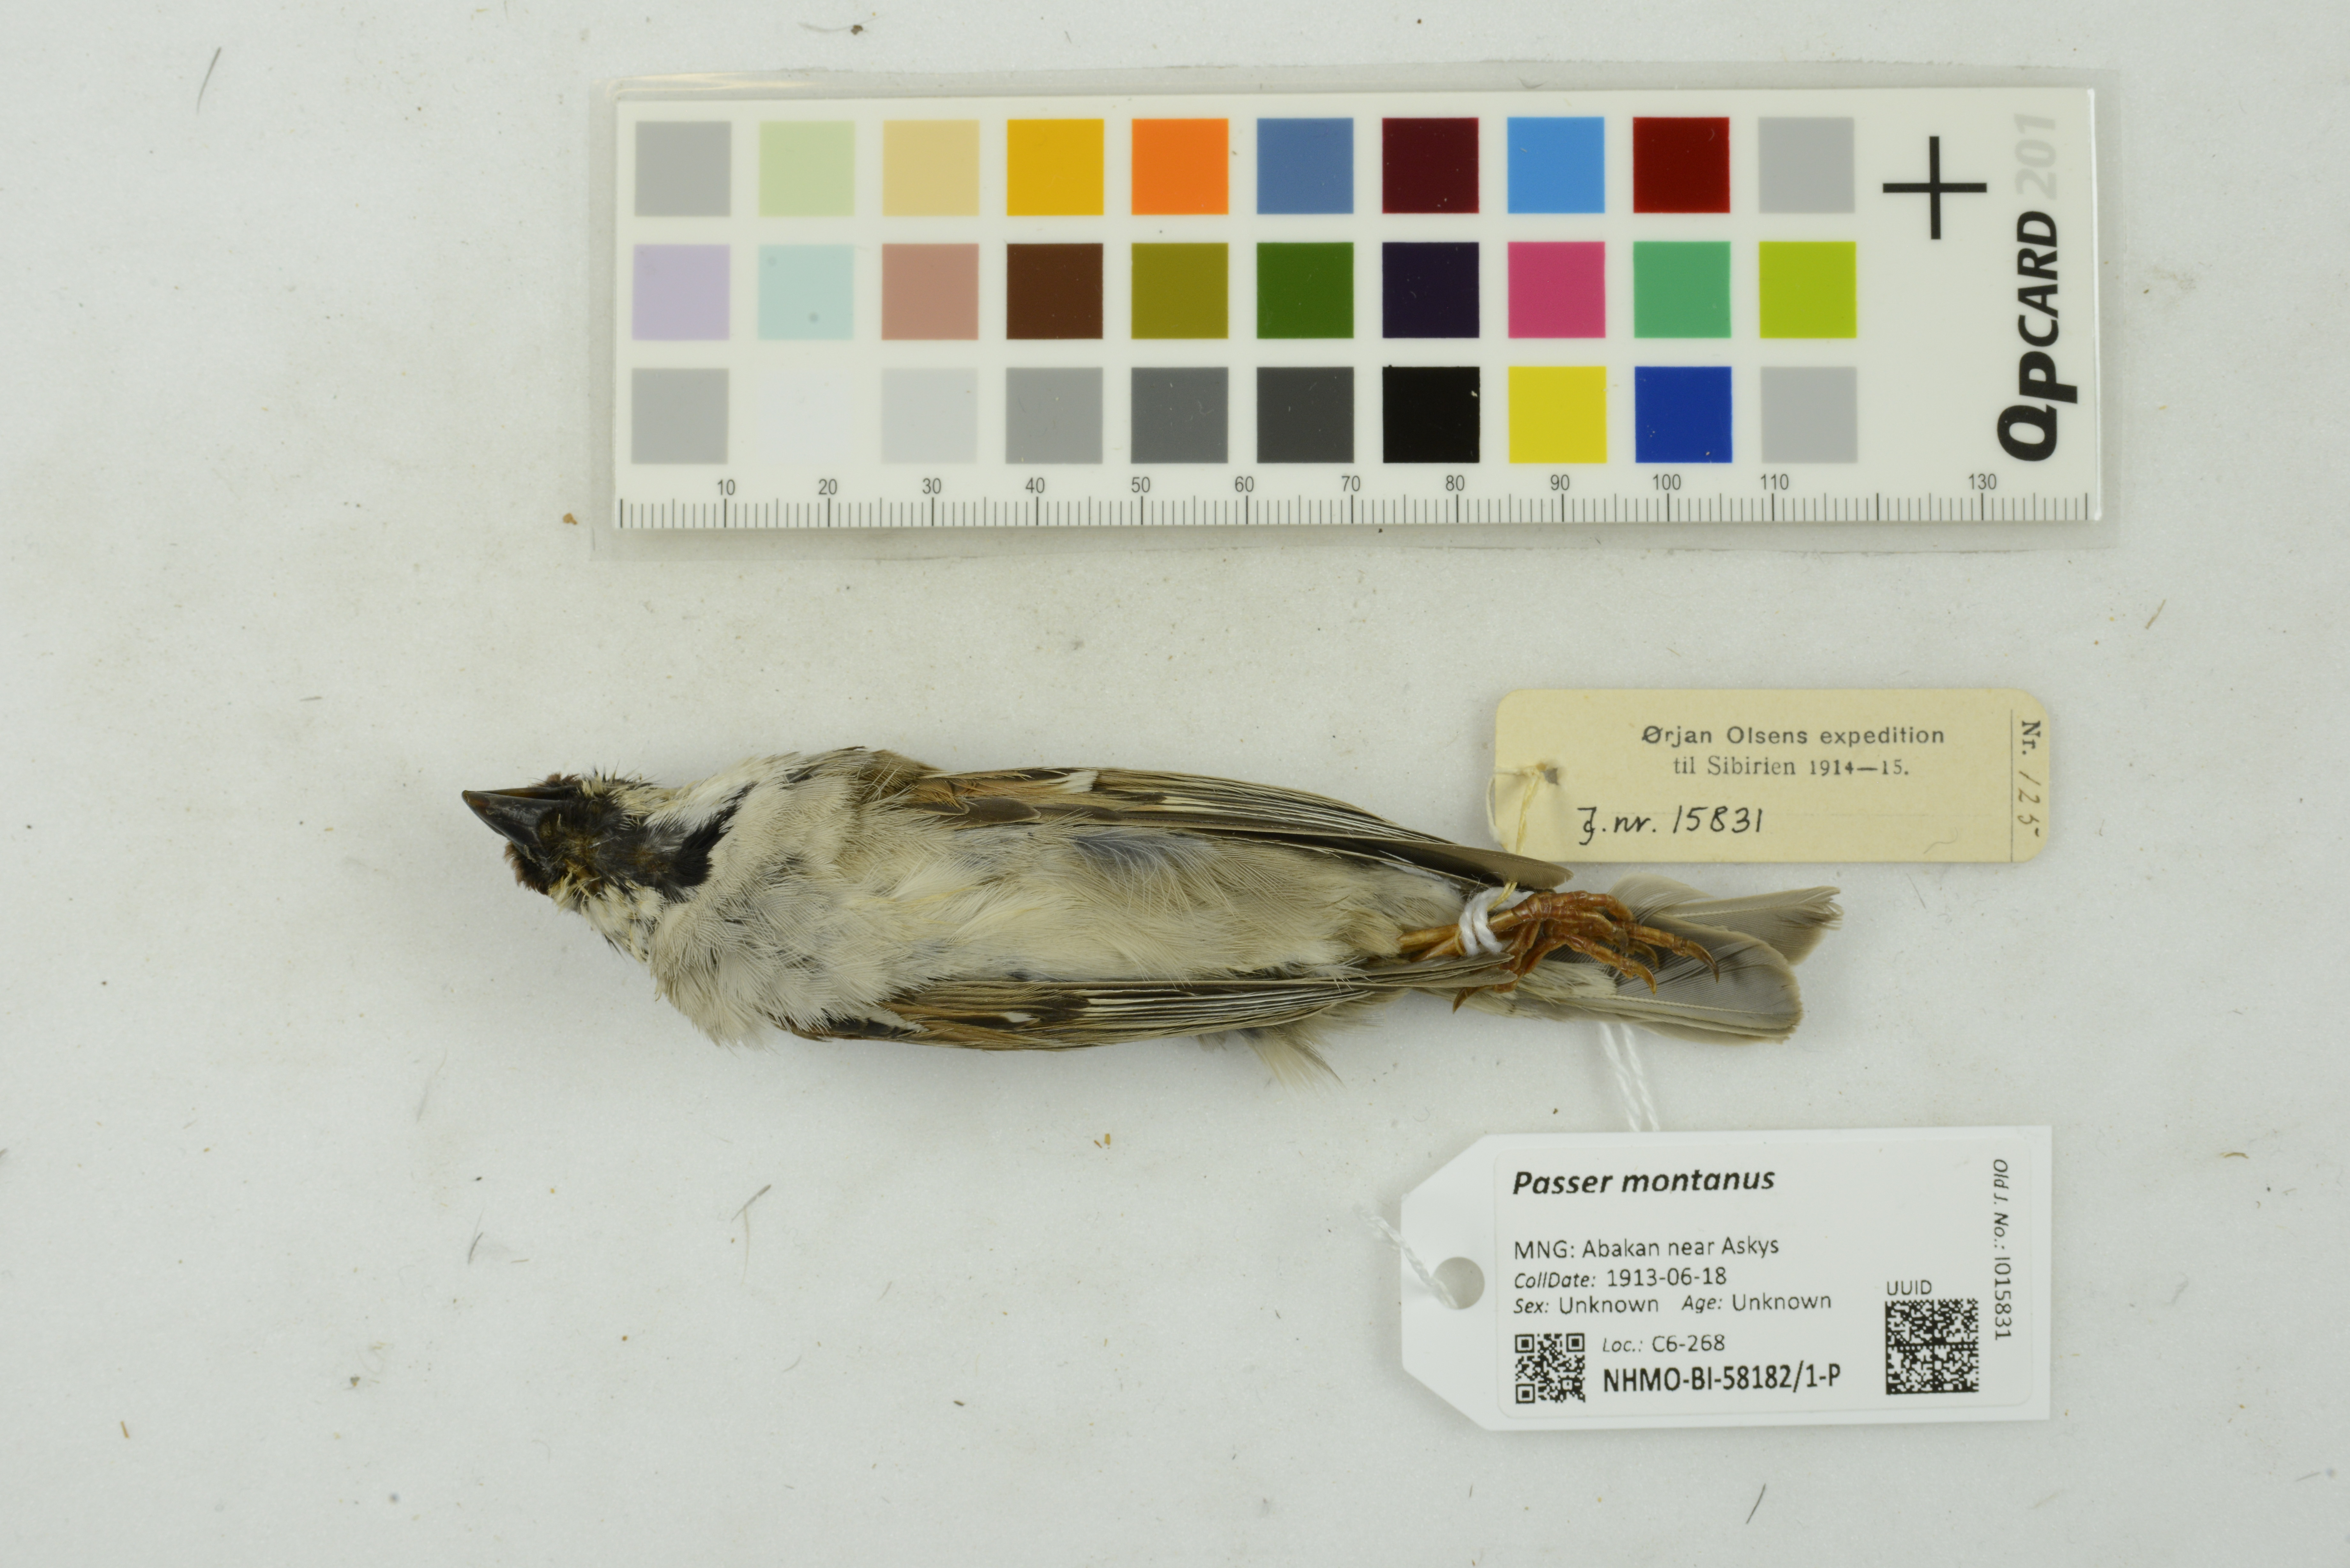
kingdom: Animalia
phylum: Chordata
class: Aves
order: Passeriformes
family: Passeridae
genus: Passer
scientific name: Passer montanus
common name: Eurasian tree sparrow
